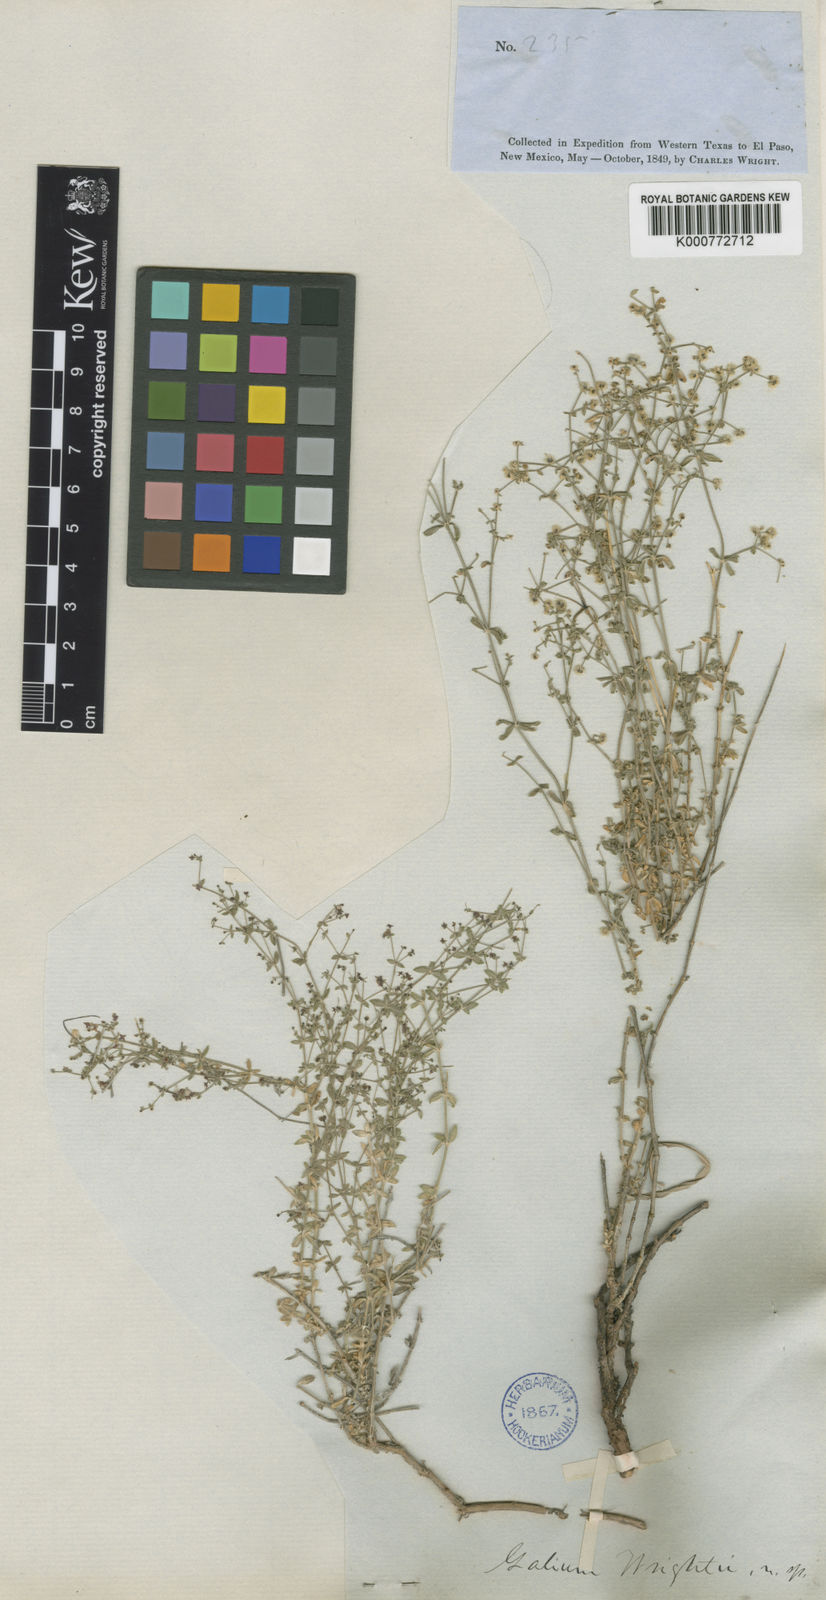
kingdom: Plantae
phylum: Tracheophyta
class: Magnoliopsida
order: Gentianales
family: Rubiaceae
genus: Galium
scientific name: Galium wrightii
